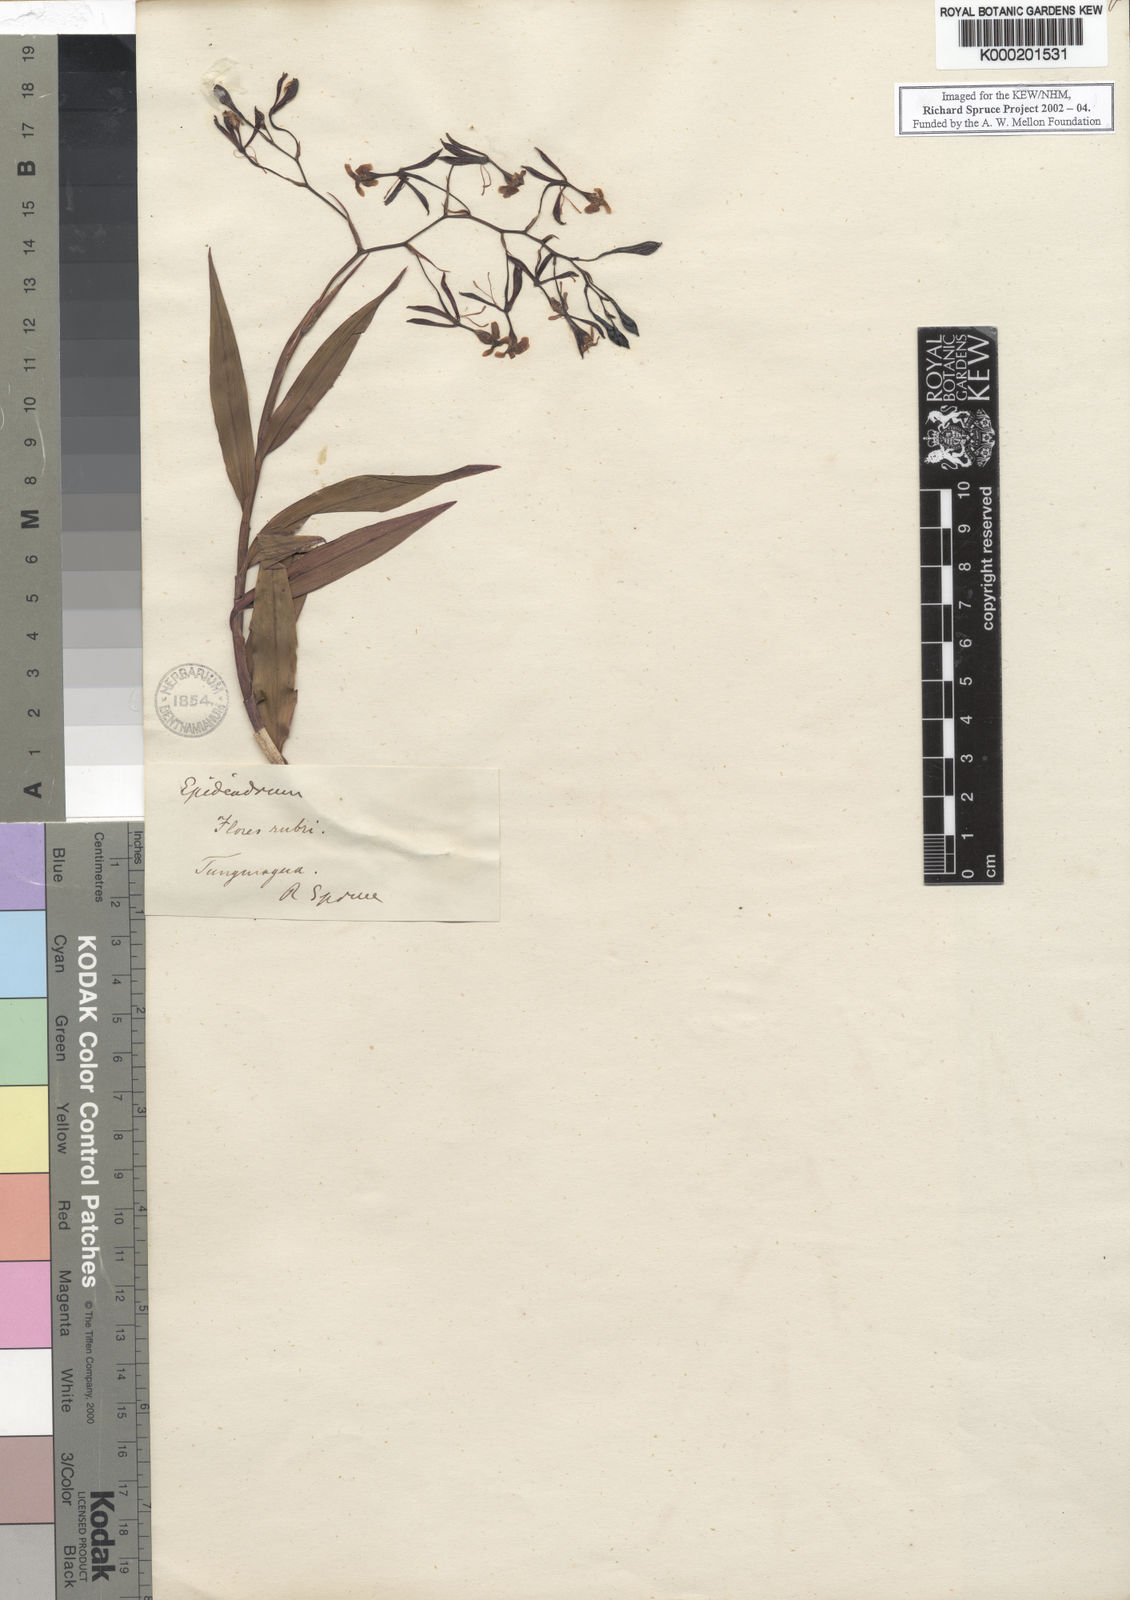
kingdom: Plantae
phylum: Tracheophyta
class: Liliopsida
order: Asparagales
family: Orchidaceae
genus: Epidendrum
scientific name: Epidendrum englerianum
